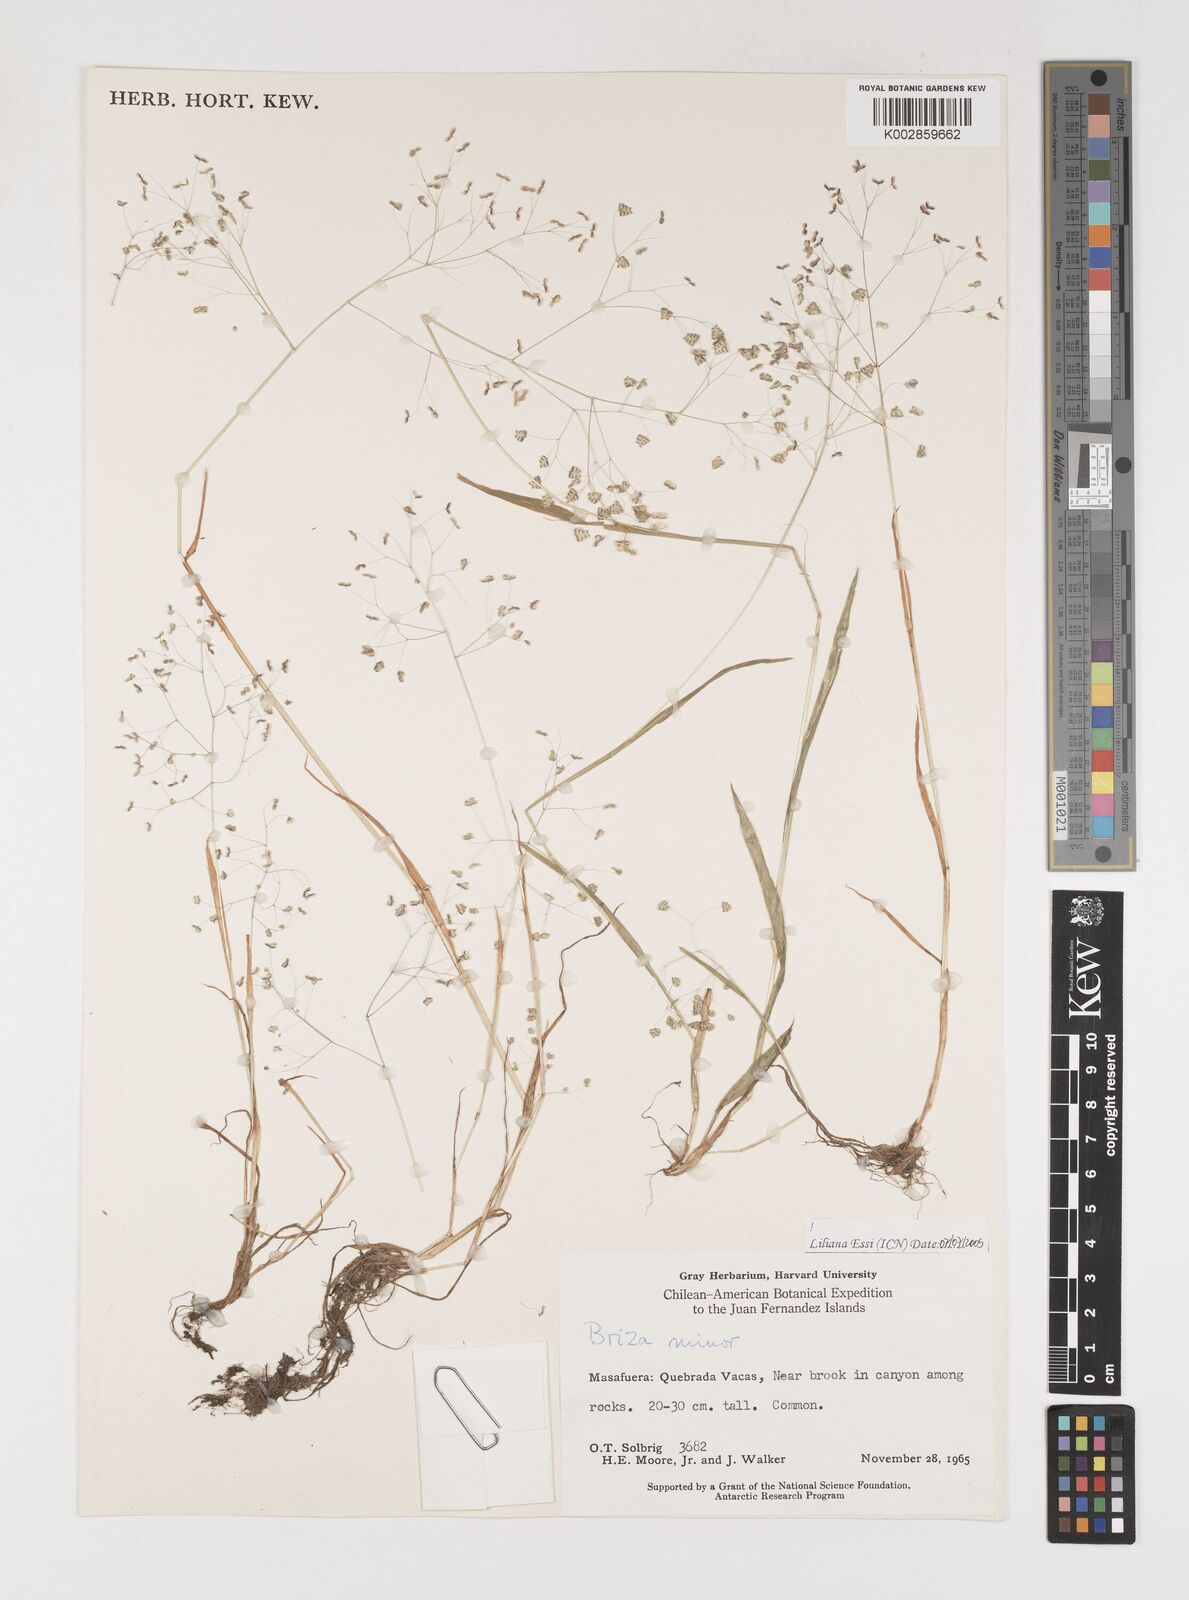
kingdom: Plantae
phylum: Tracheophyta
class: Liliopsida
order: Poales
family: Poaceae
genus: Briza
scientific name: Briza minor
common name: Lesser quaking-grass
